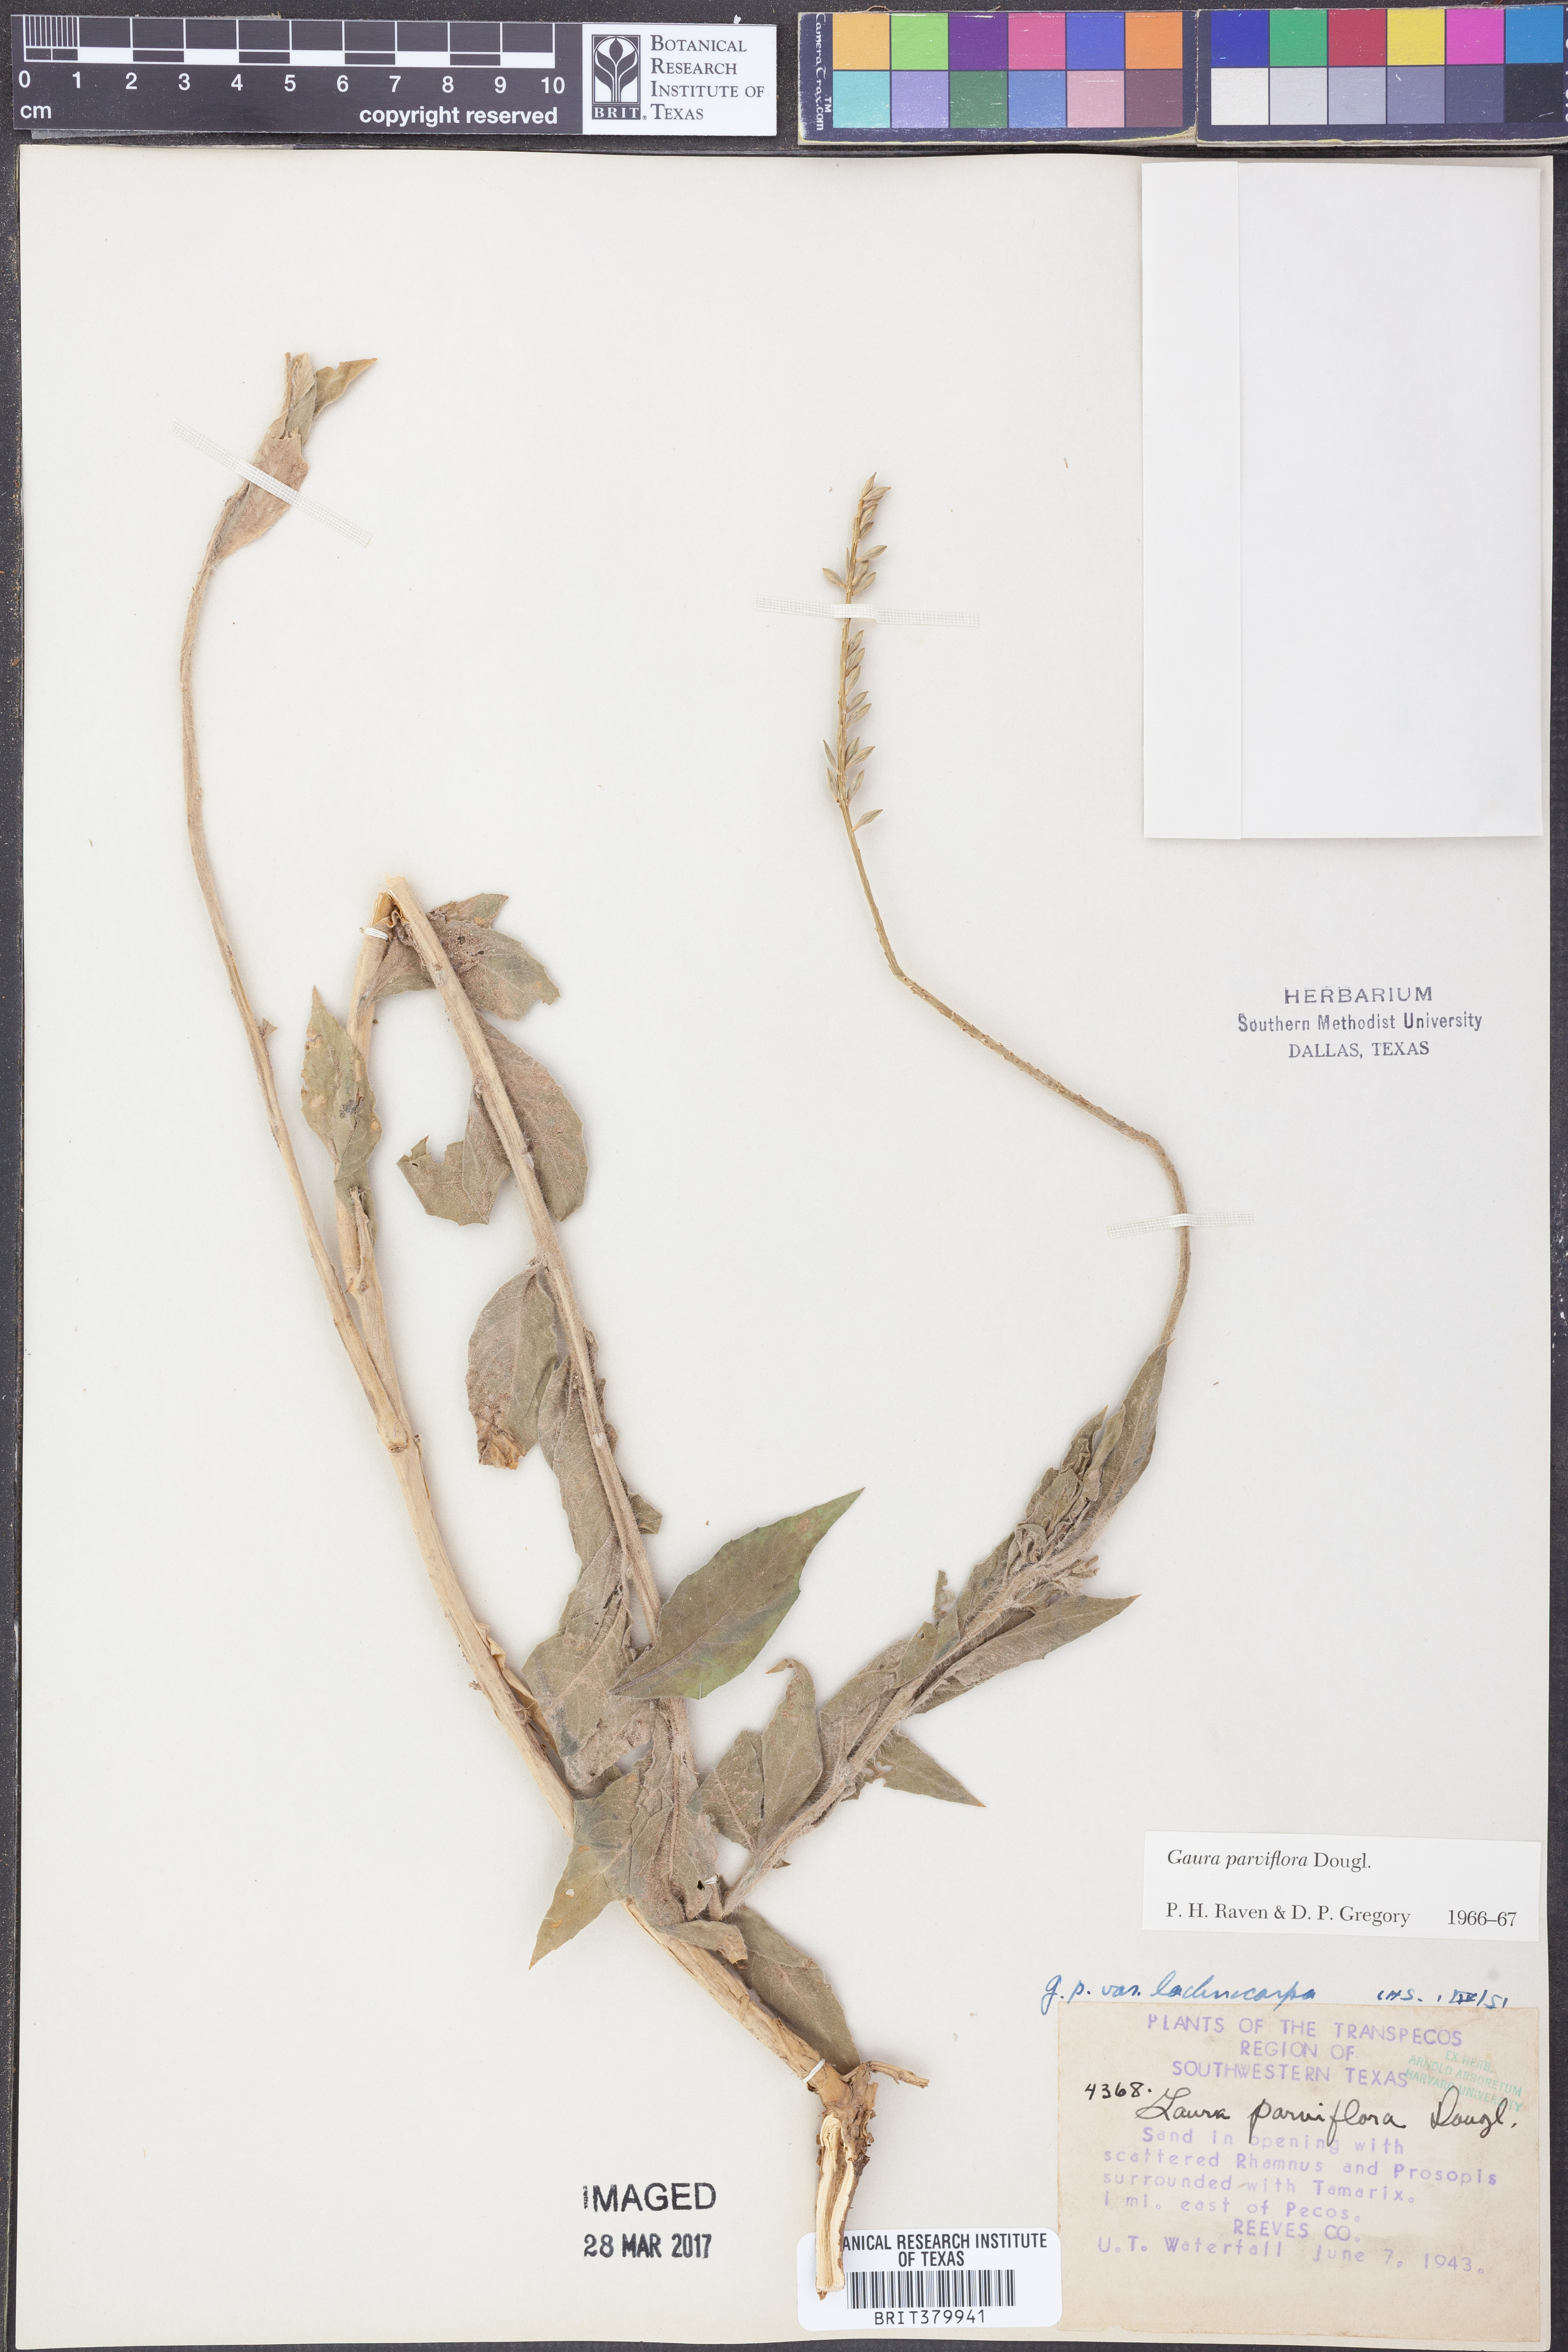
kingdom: Plantae
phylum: Tracheophyta
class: Magnoliopsida
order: Myrtales
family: Onagraceae
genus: Oenothera
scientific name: Oenothera curtiflora
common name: Velvetweed
